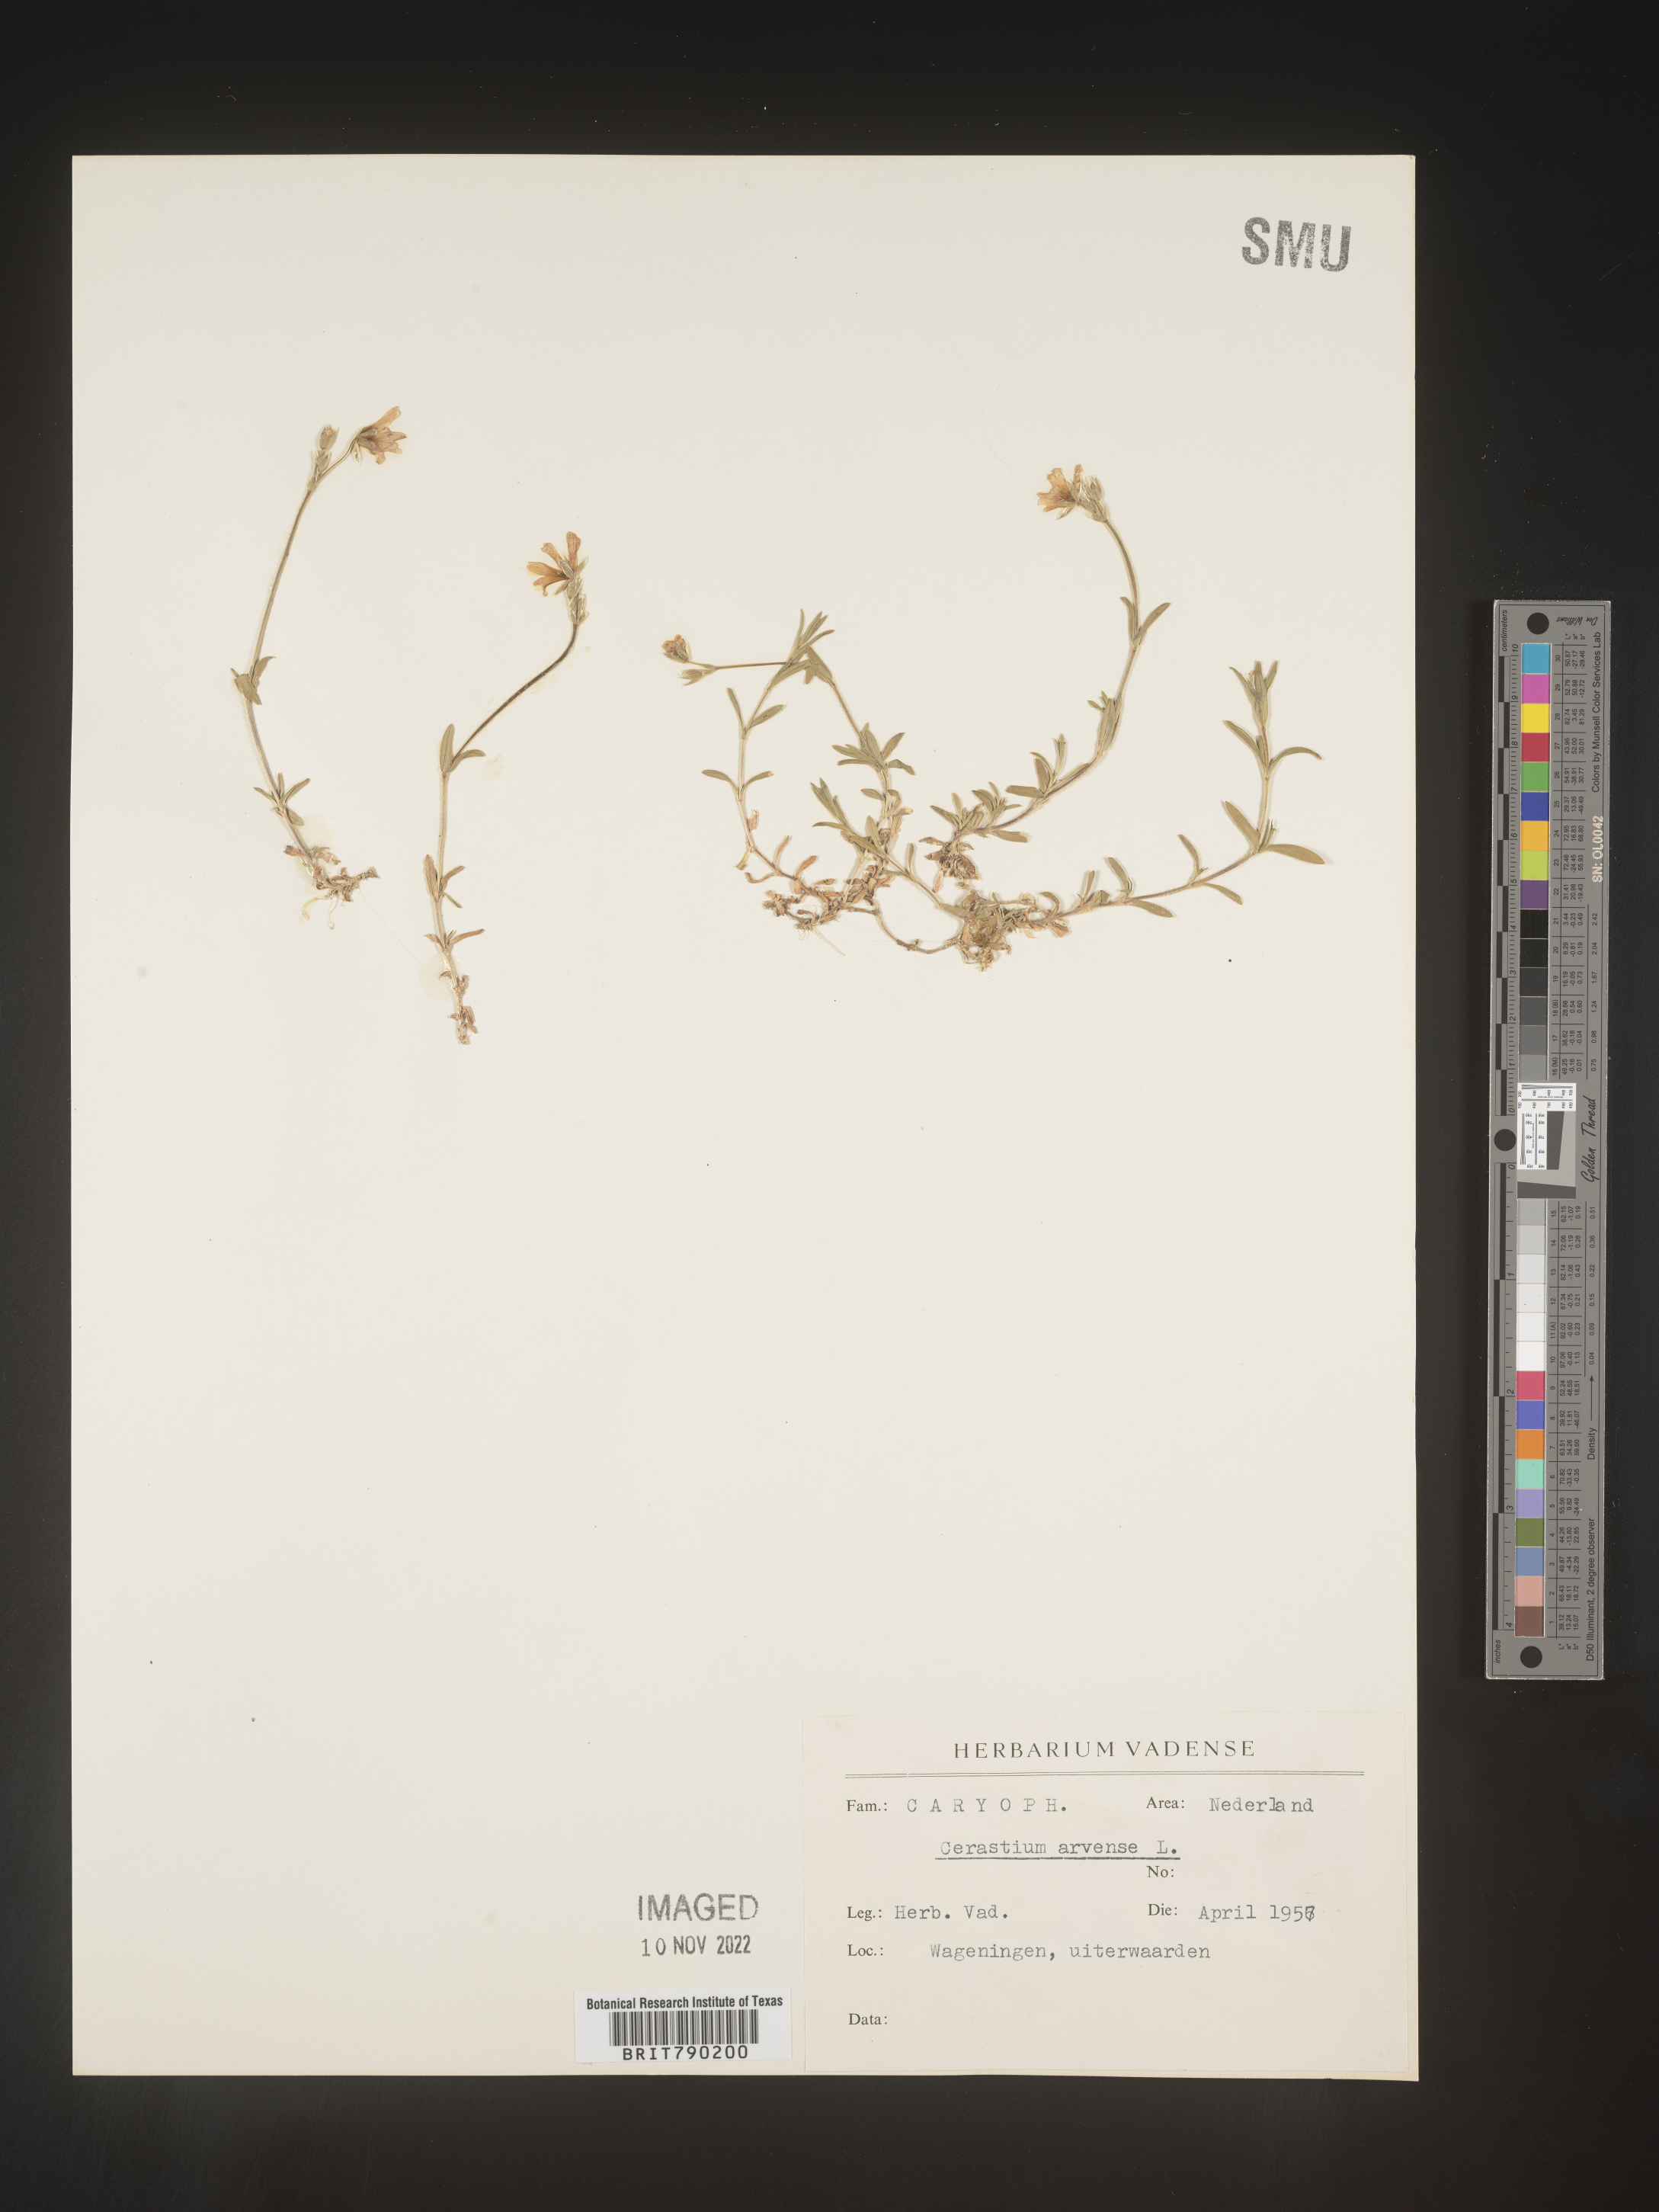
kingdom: Plantae
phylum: Tracheophyta
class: Magnoliopsida
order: Caryophyllales
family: Caryophyllaceae
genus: Cerastium
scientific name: Cerastium
